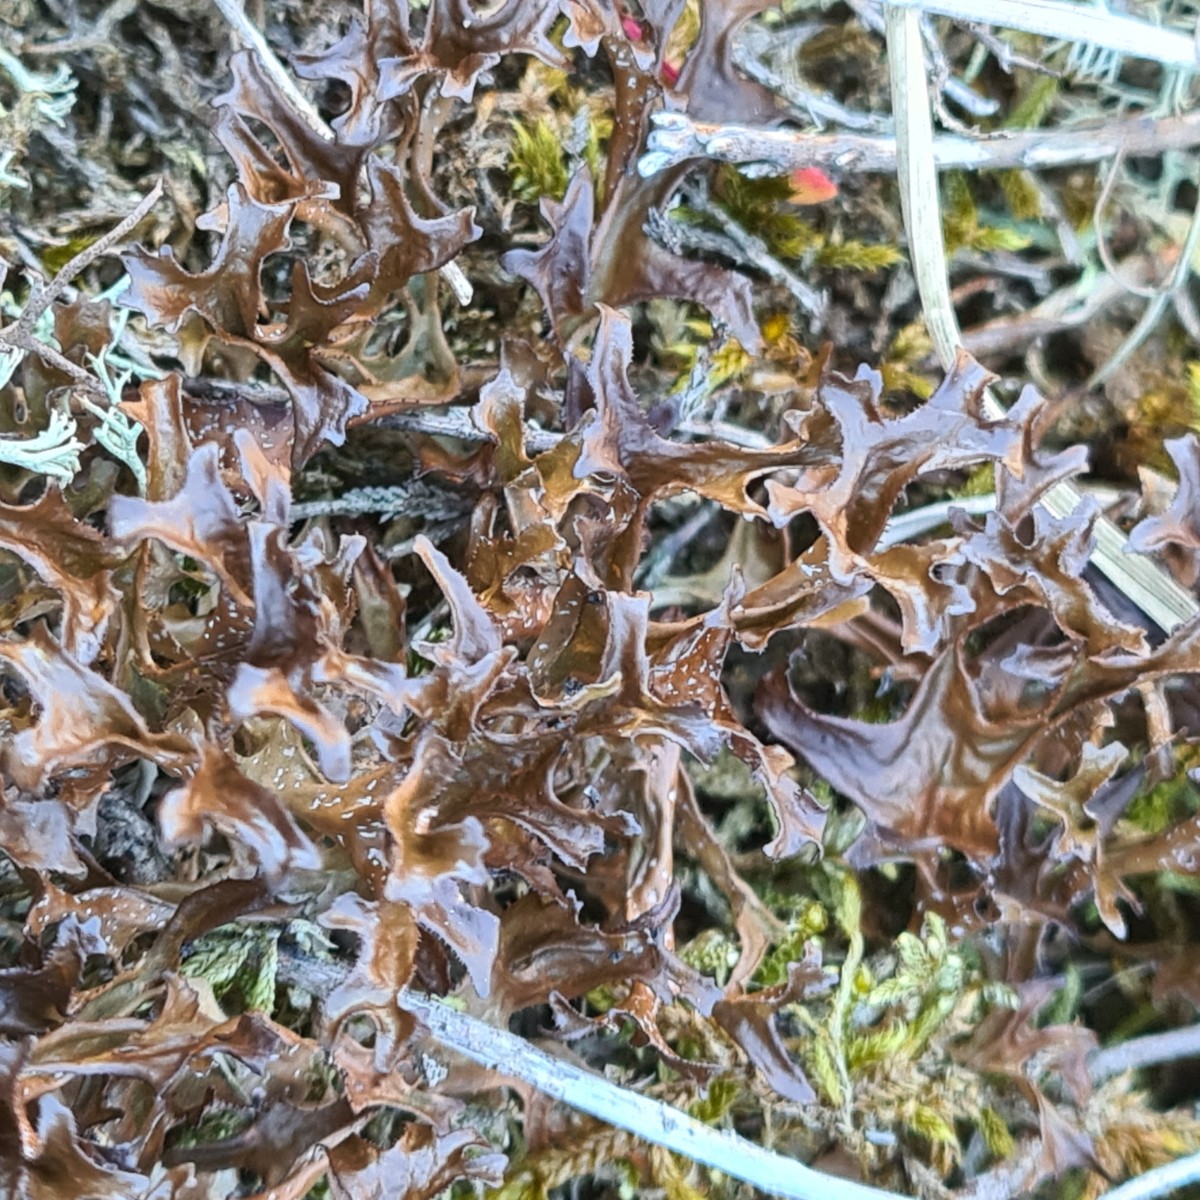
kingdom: Fungi
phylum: Ascomycota
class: Lecanoromycetes
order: Lecanorales
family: Parmeliaceae
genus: Cetraria
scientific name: Cetraria islandica
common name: islandsk kruslav
